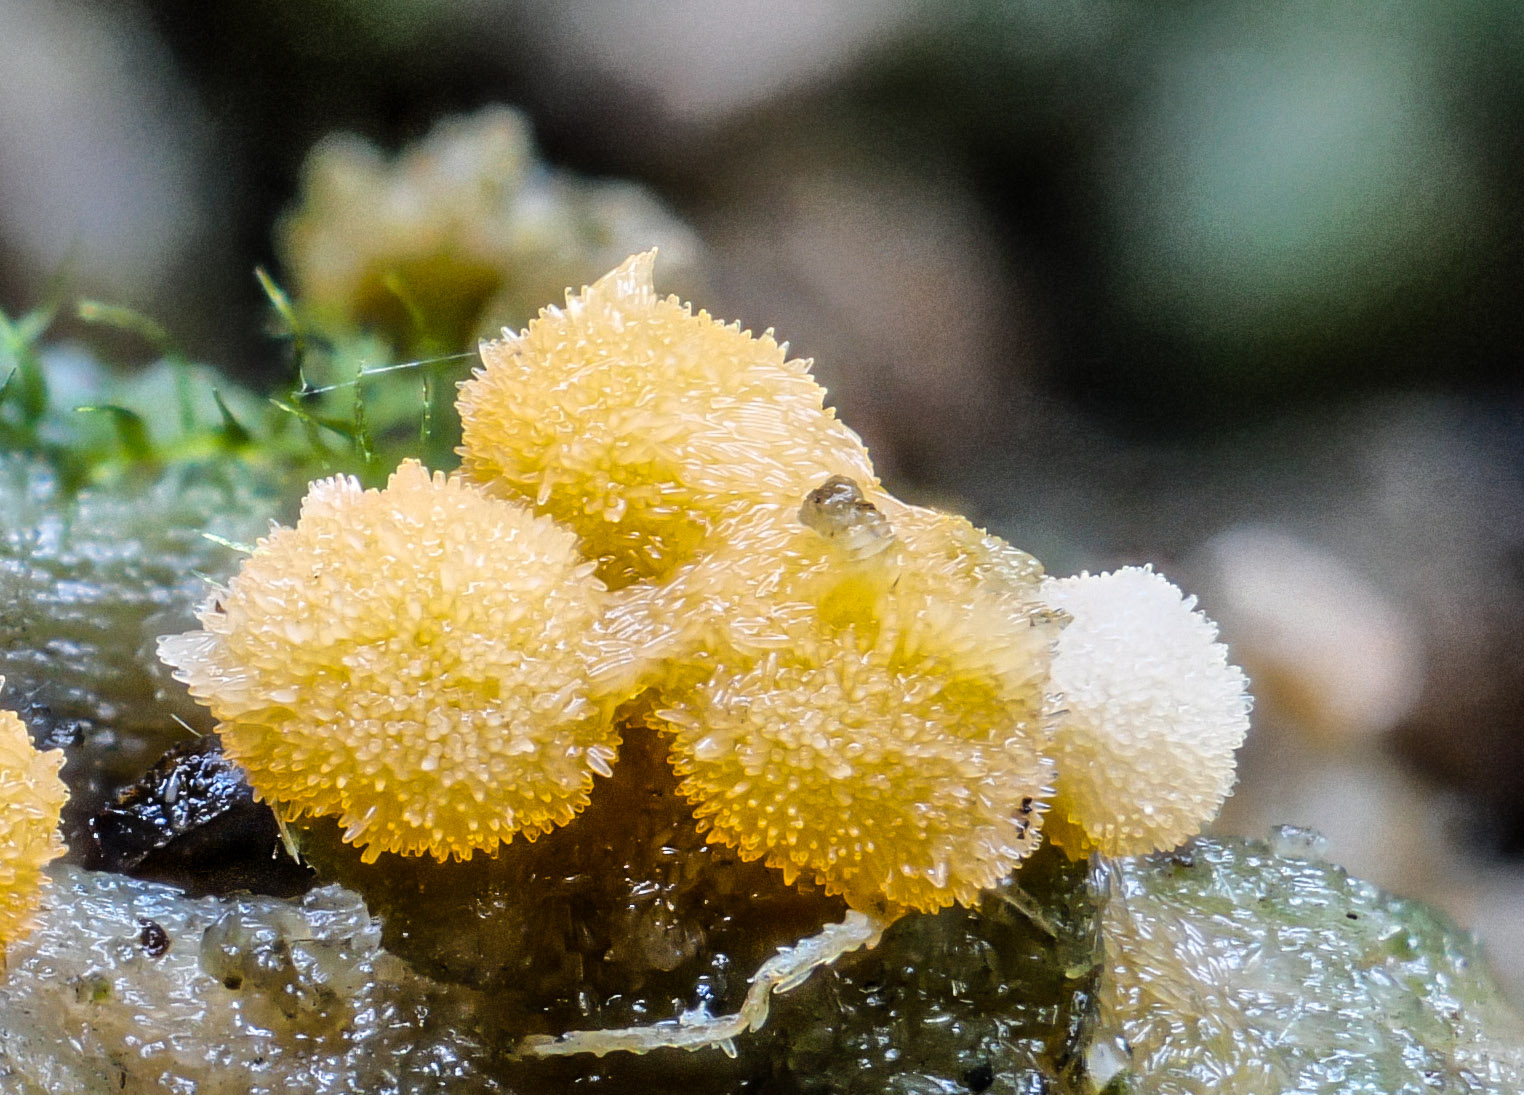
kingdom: Fungi
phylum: Ascomycota
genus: Bactridium
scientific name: Bactridium flavum
